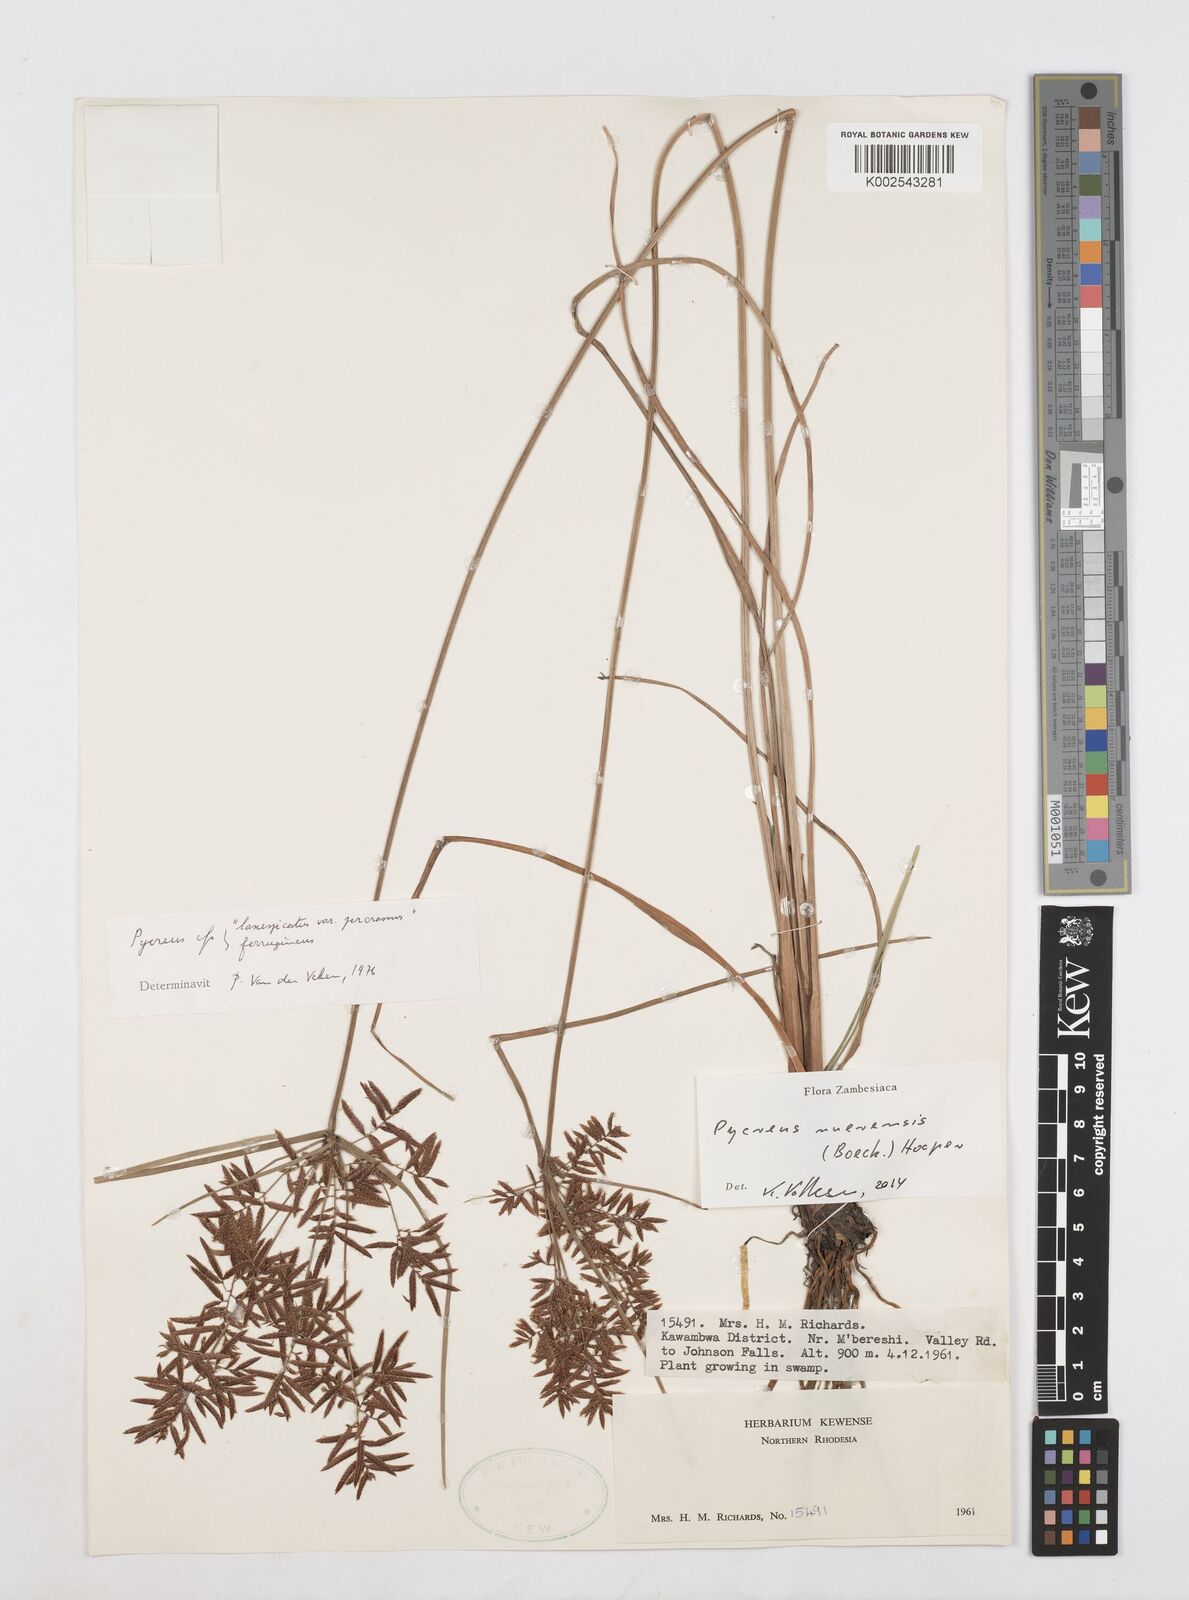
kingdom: Plantae
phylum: Tracheophyta
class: Liliopsida
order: Poales
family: Cyperaceae
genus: Cyperus
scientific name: Cyperus nuerensis
